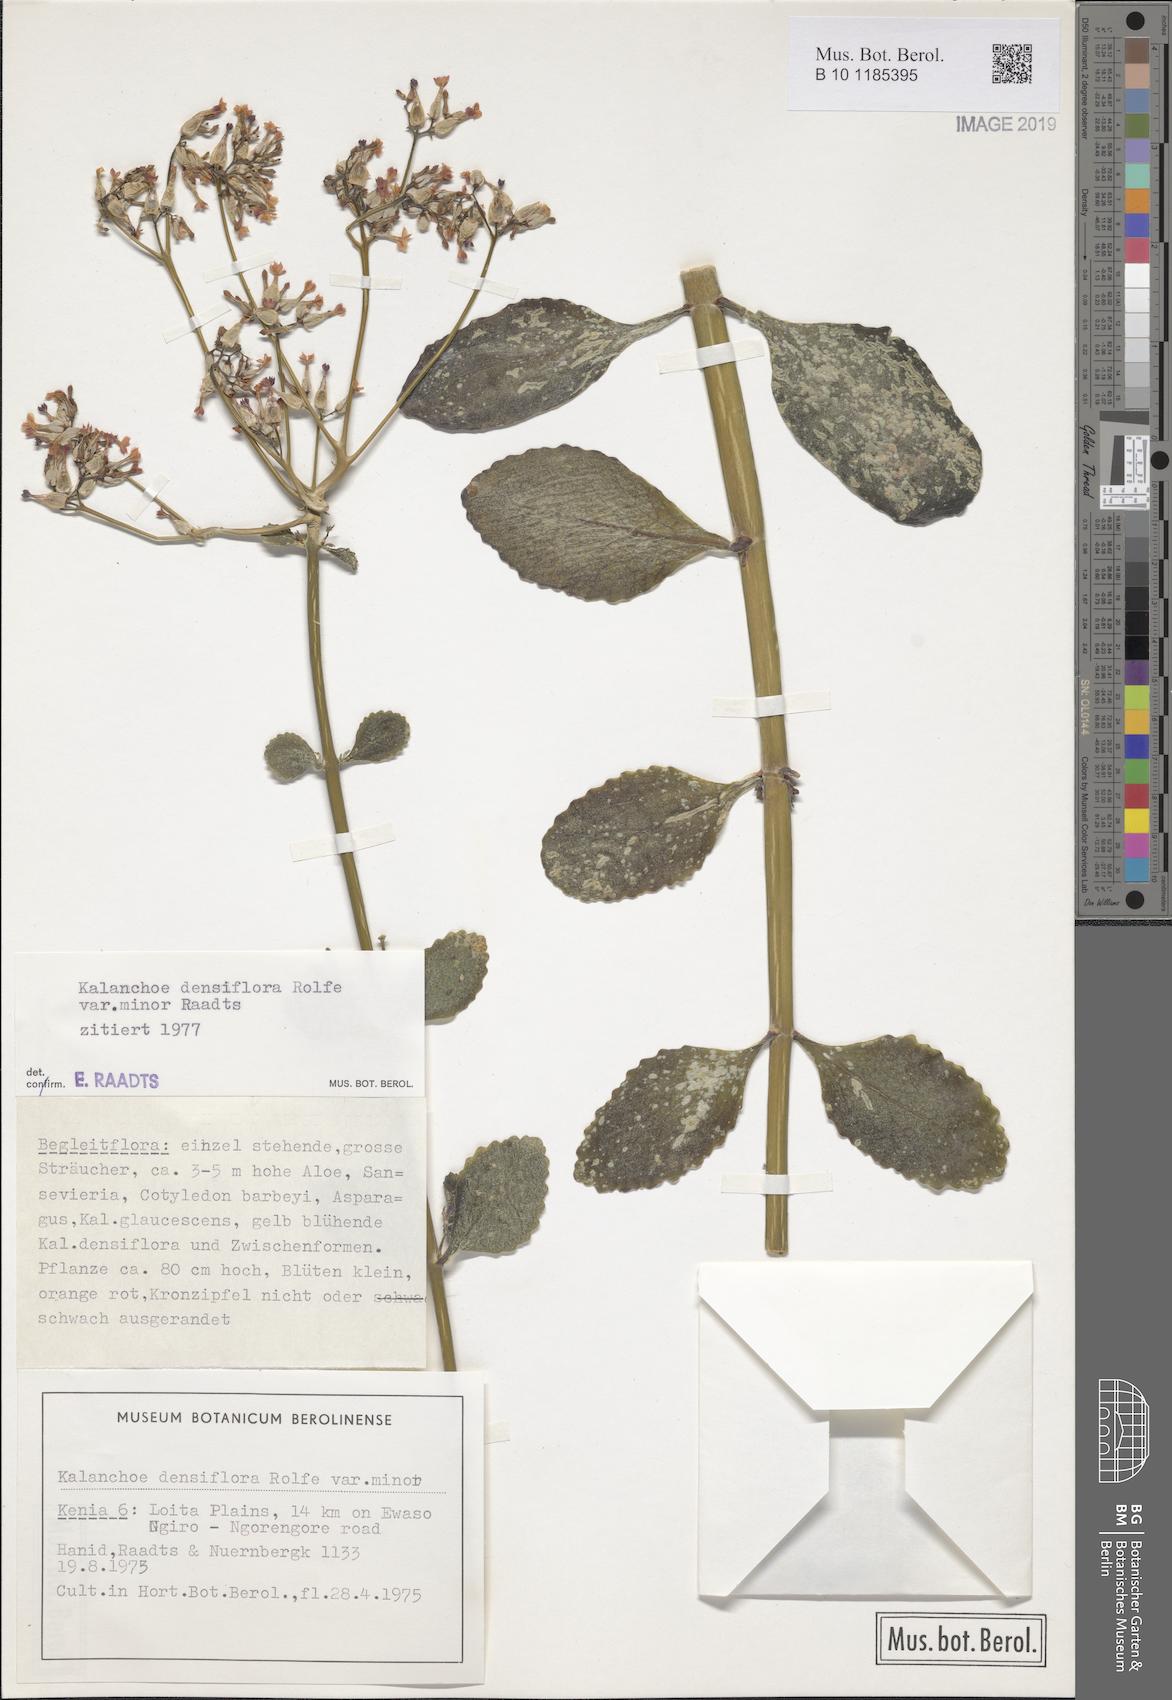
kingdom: Plantae
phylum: Tracheophyta
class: Magnoliopsida
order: Saxifragales
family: Crassulaceae
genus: Kalanchoe
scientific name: Kalanchoe densiflora
